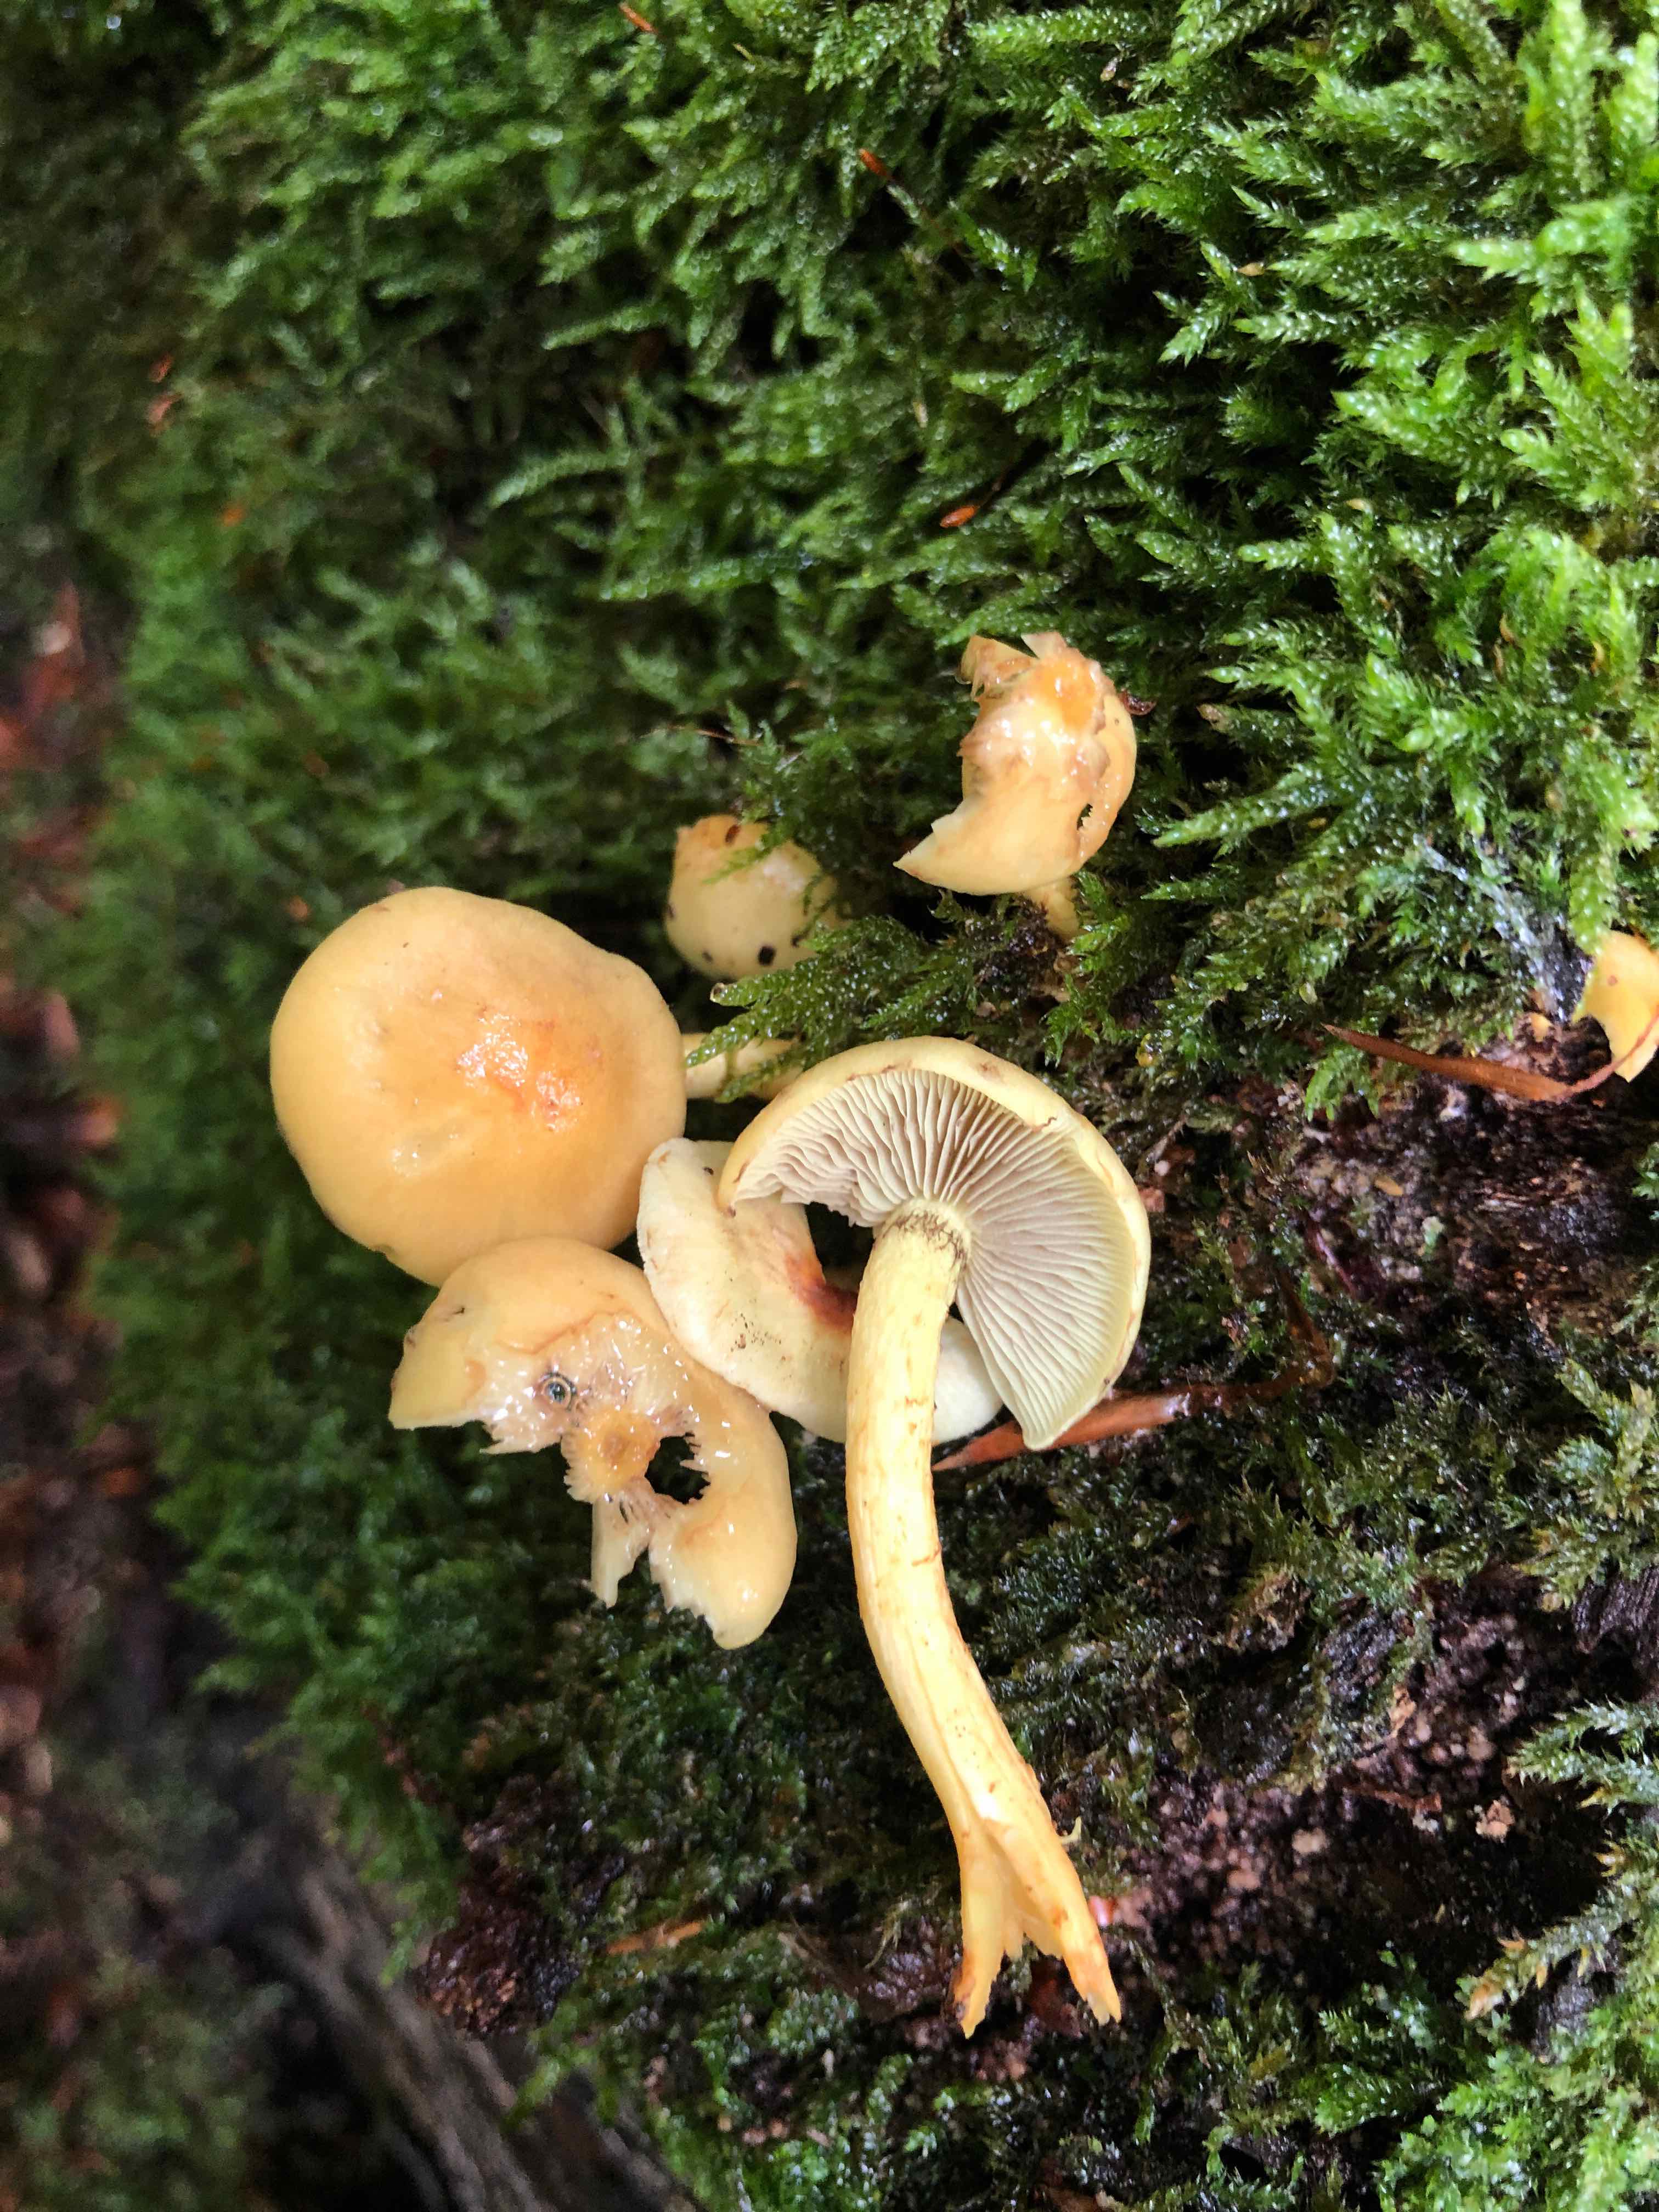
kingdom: Fungi
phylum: Basidiomycota
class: Agaricomycetes
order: Agaricales
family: Strophariaceae
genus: Hypholoma
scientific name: Hypholoma fasciculare
